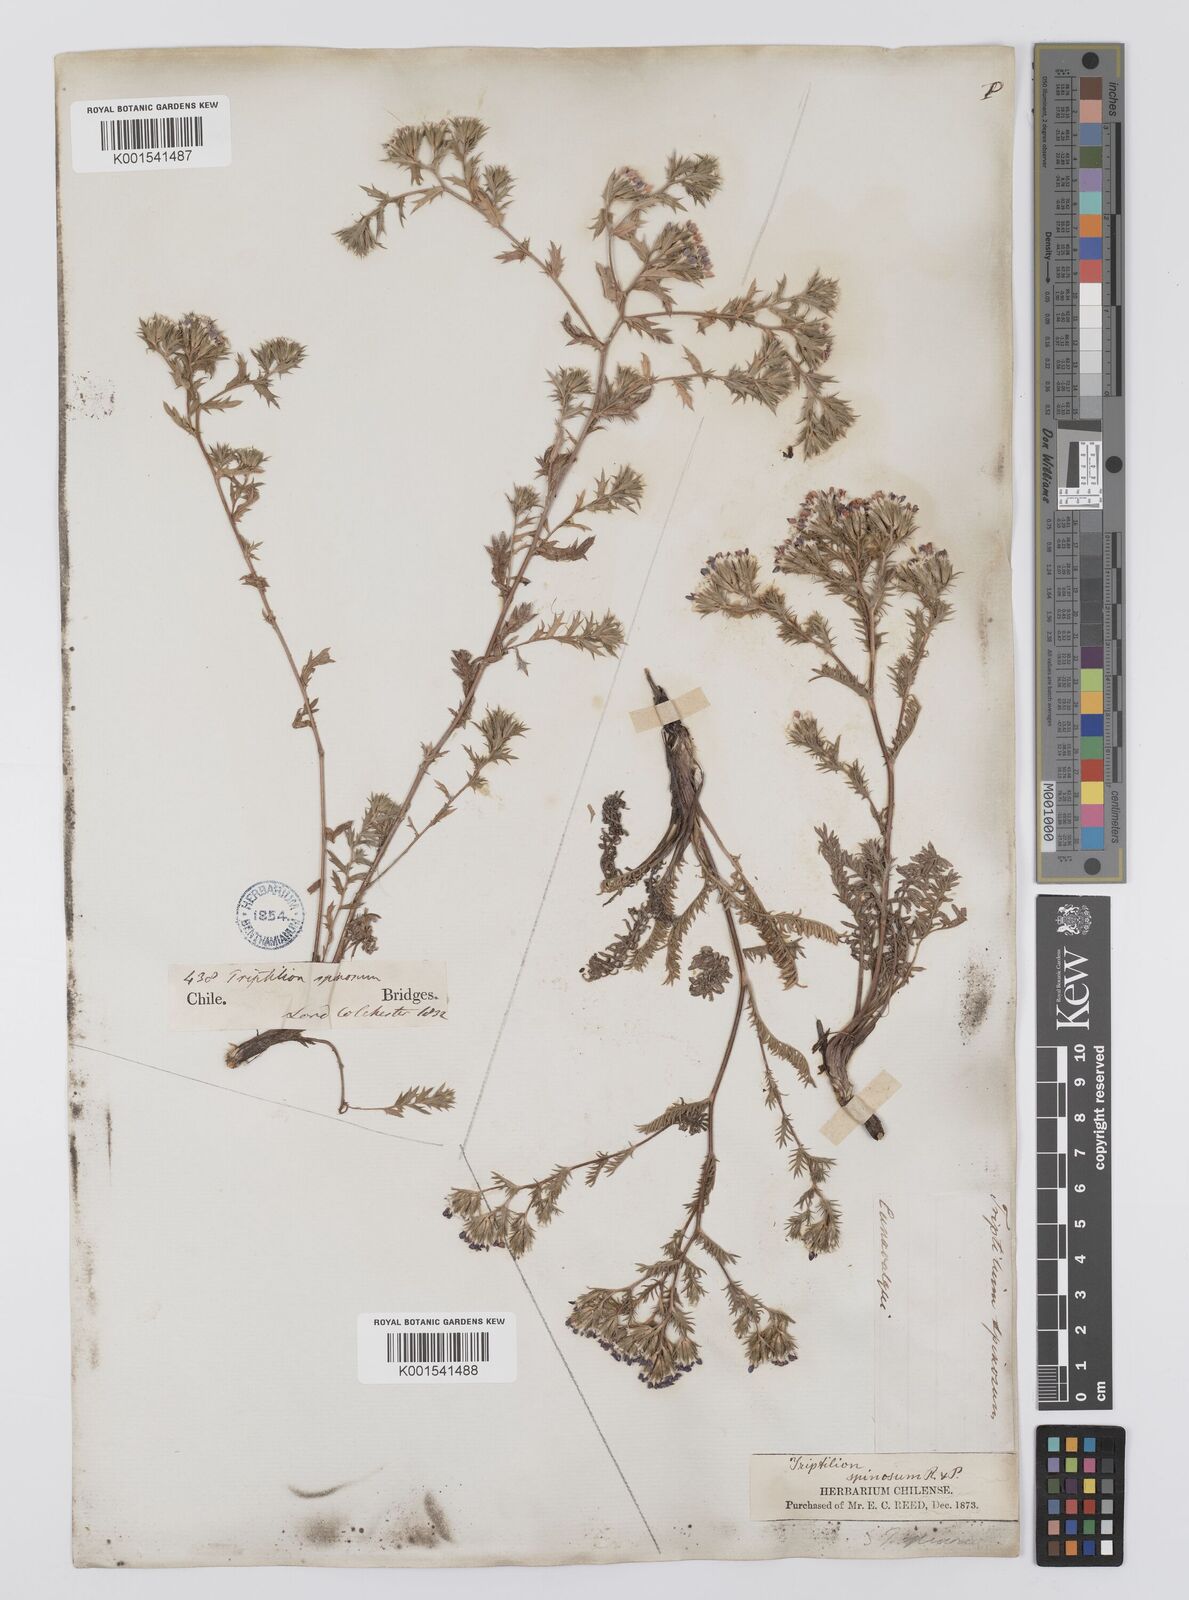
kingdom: Plantae
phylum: Tracheophyta
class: Magnoliopsida
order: Asterales
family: Asteraceae
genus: Triptilion
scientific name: Triptilion spinosum
